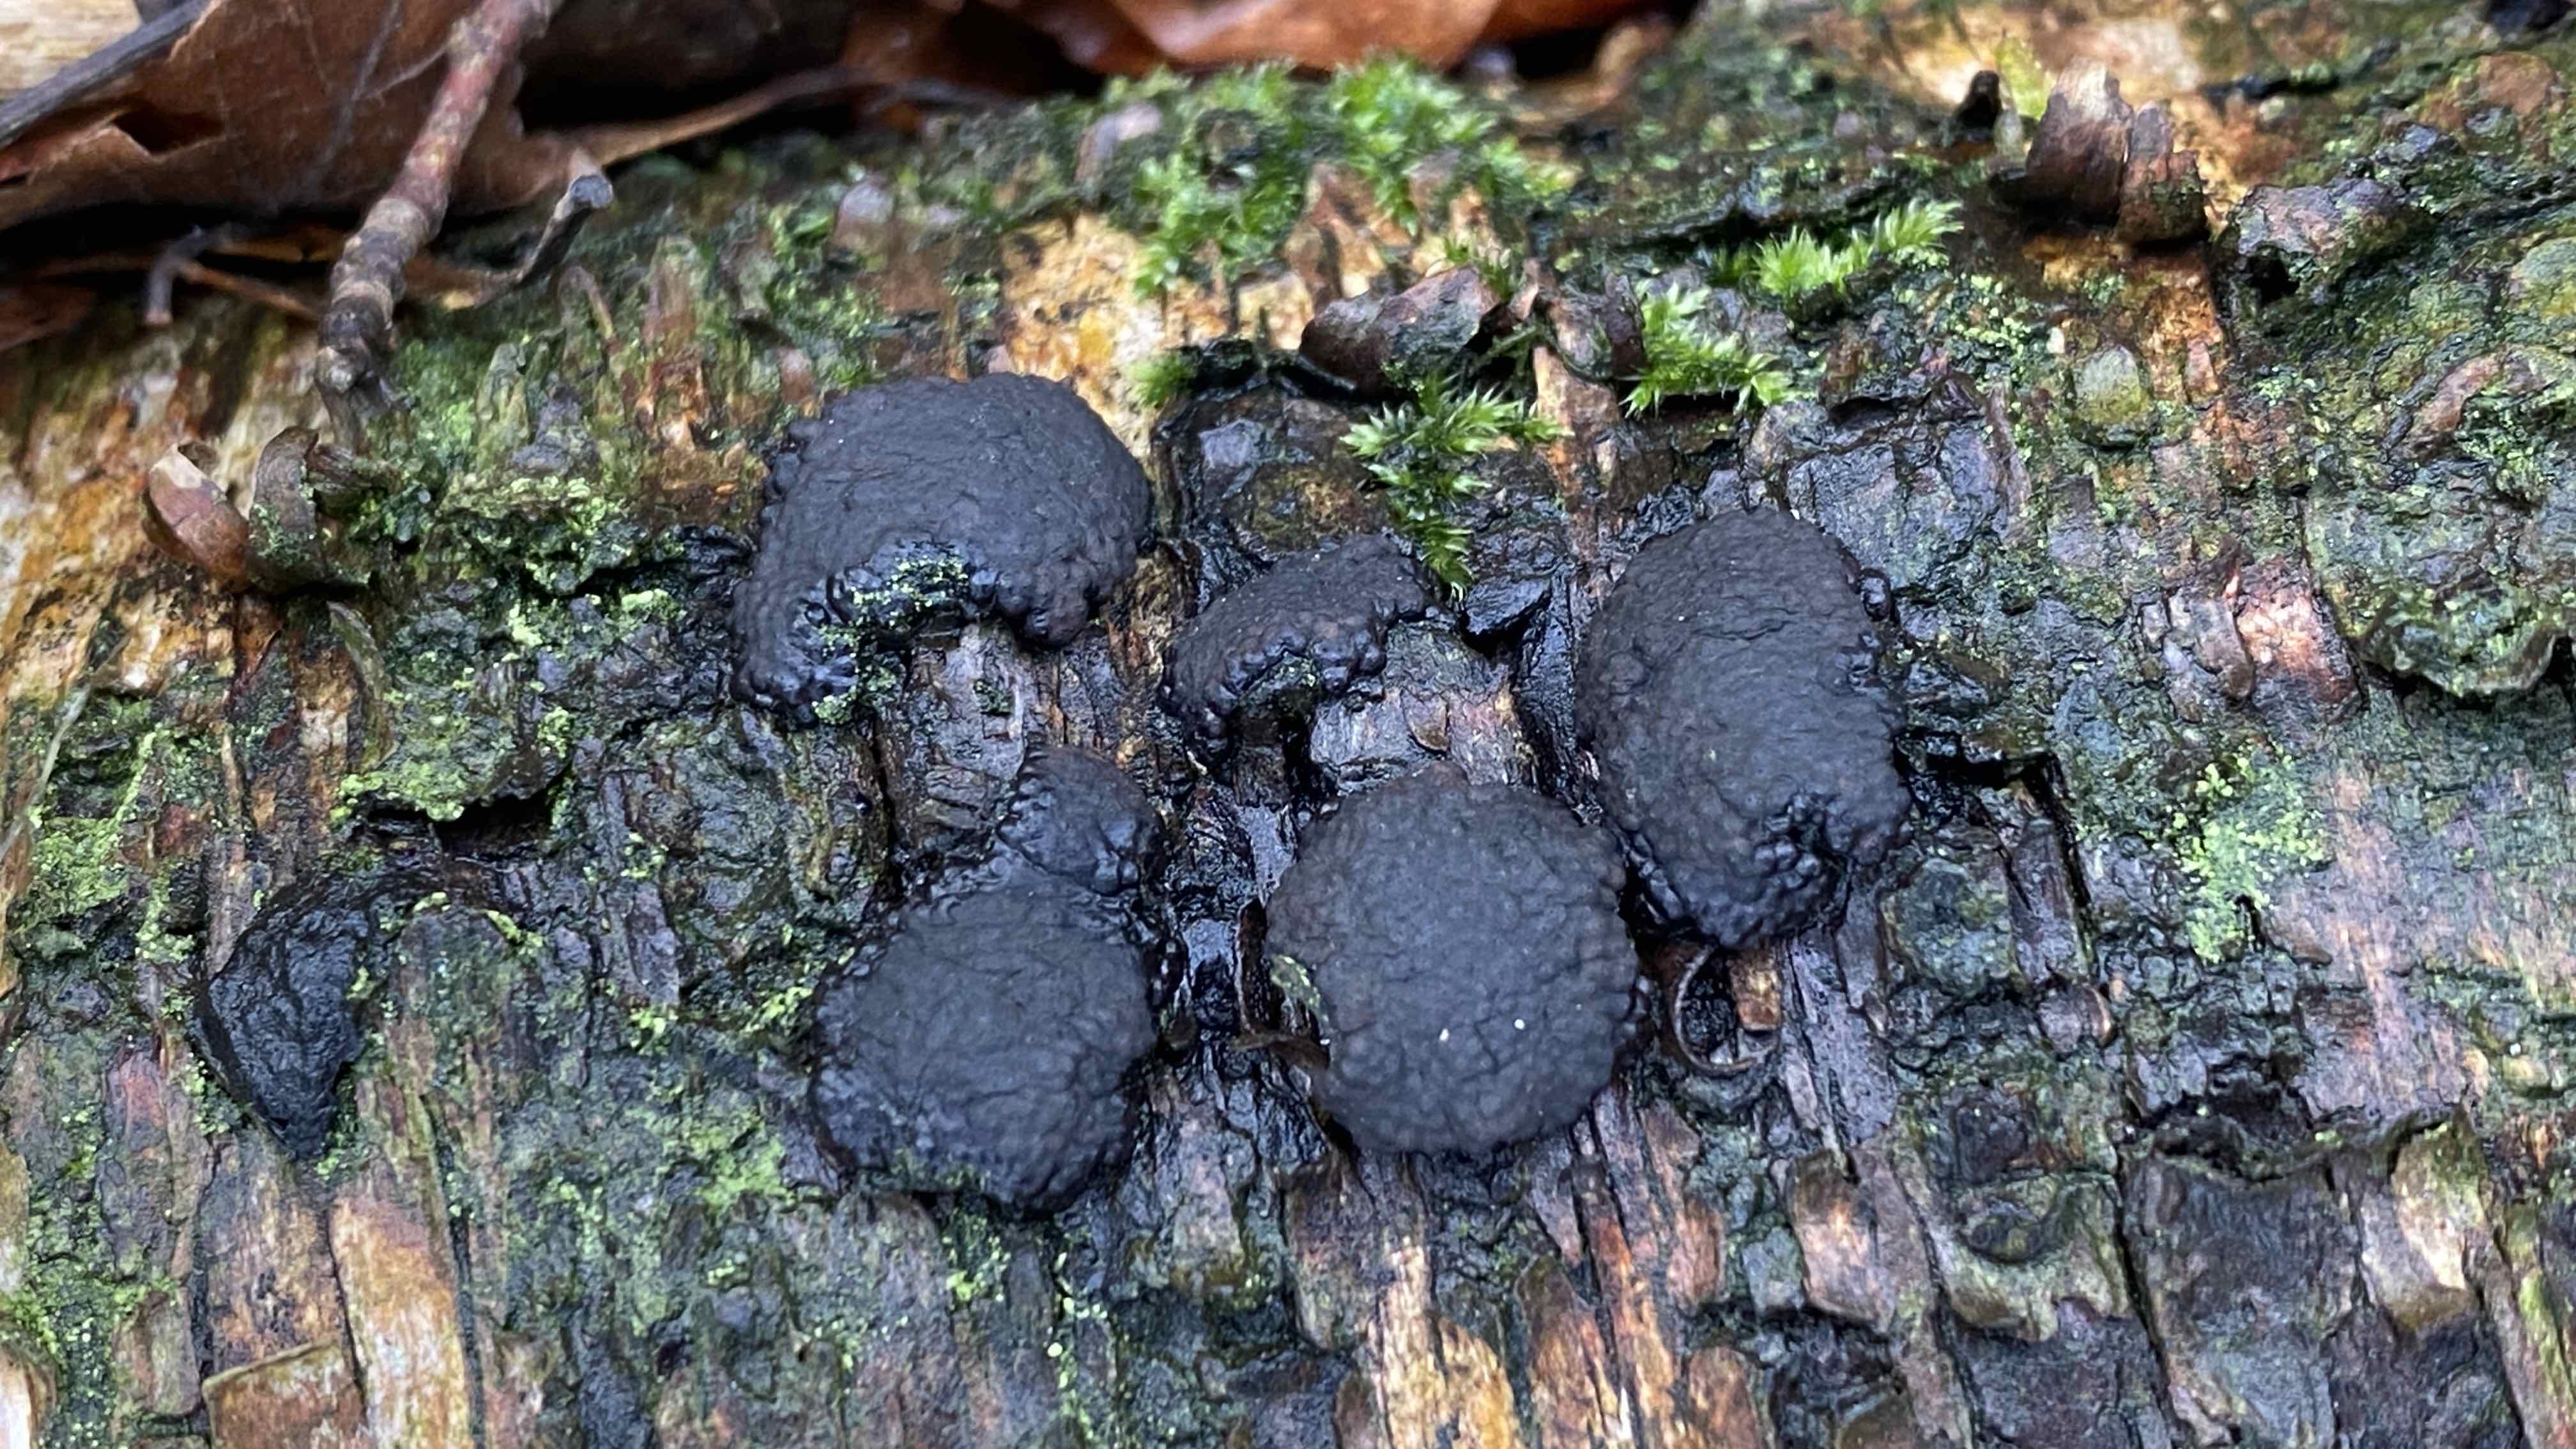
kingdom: Fungi
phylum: Ascomycota
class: Sordariomycetes
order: Xylariales
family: Hypoxylaceae
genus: Jackrogersella
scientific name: Jackrogersella multiformis
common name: foranderlig kulbær
